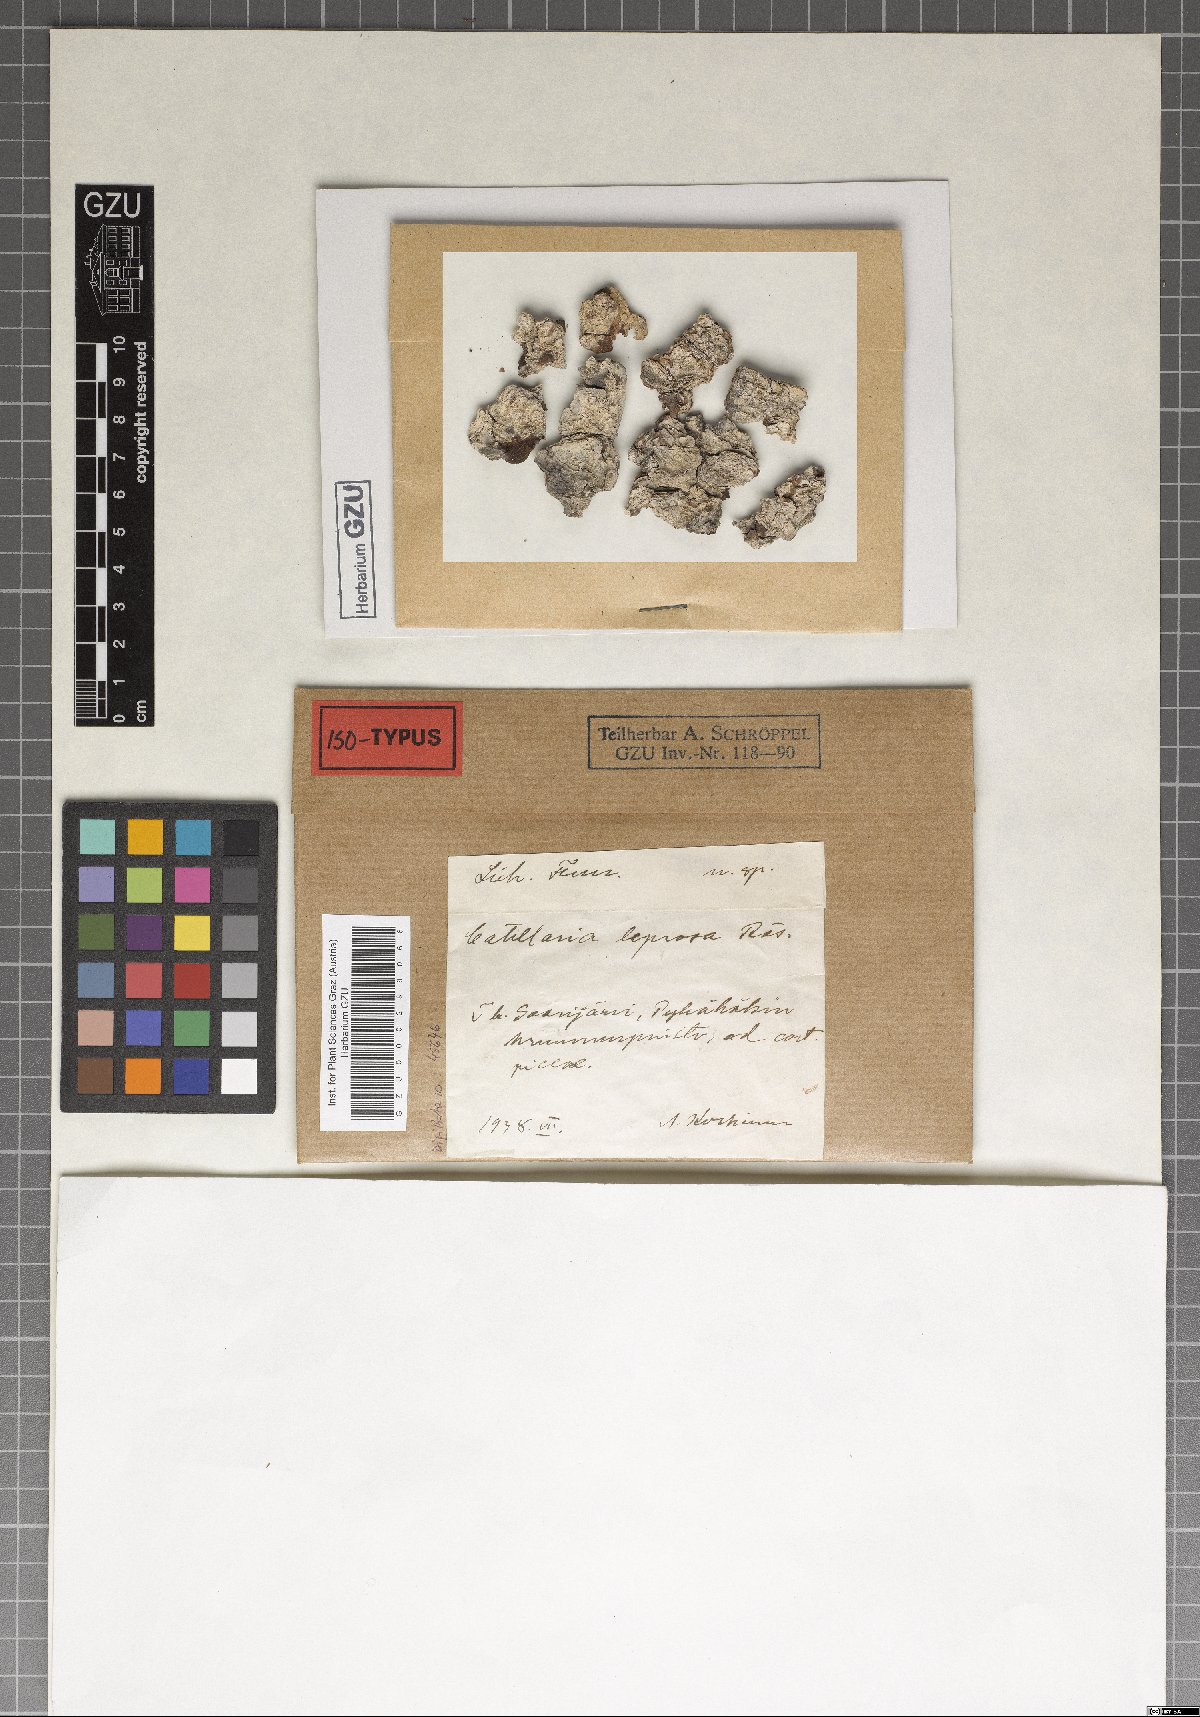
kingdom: Fungi
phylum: Ascomycota
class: Lecanoromycetes
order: Lecanorales
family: Ramalinaceae
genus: Cliostomum
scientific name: Cliostomum leprosum
